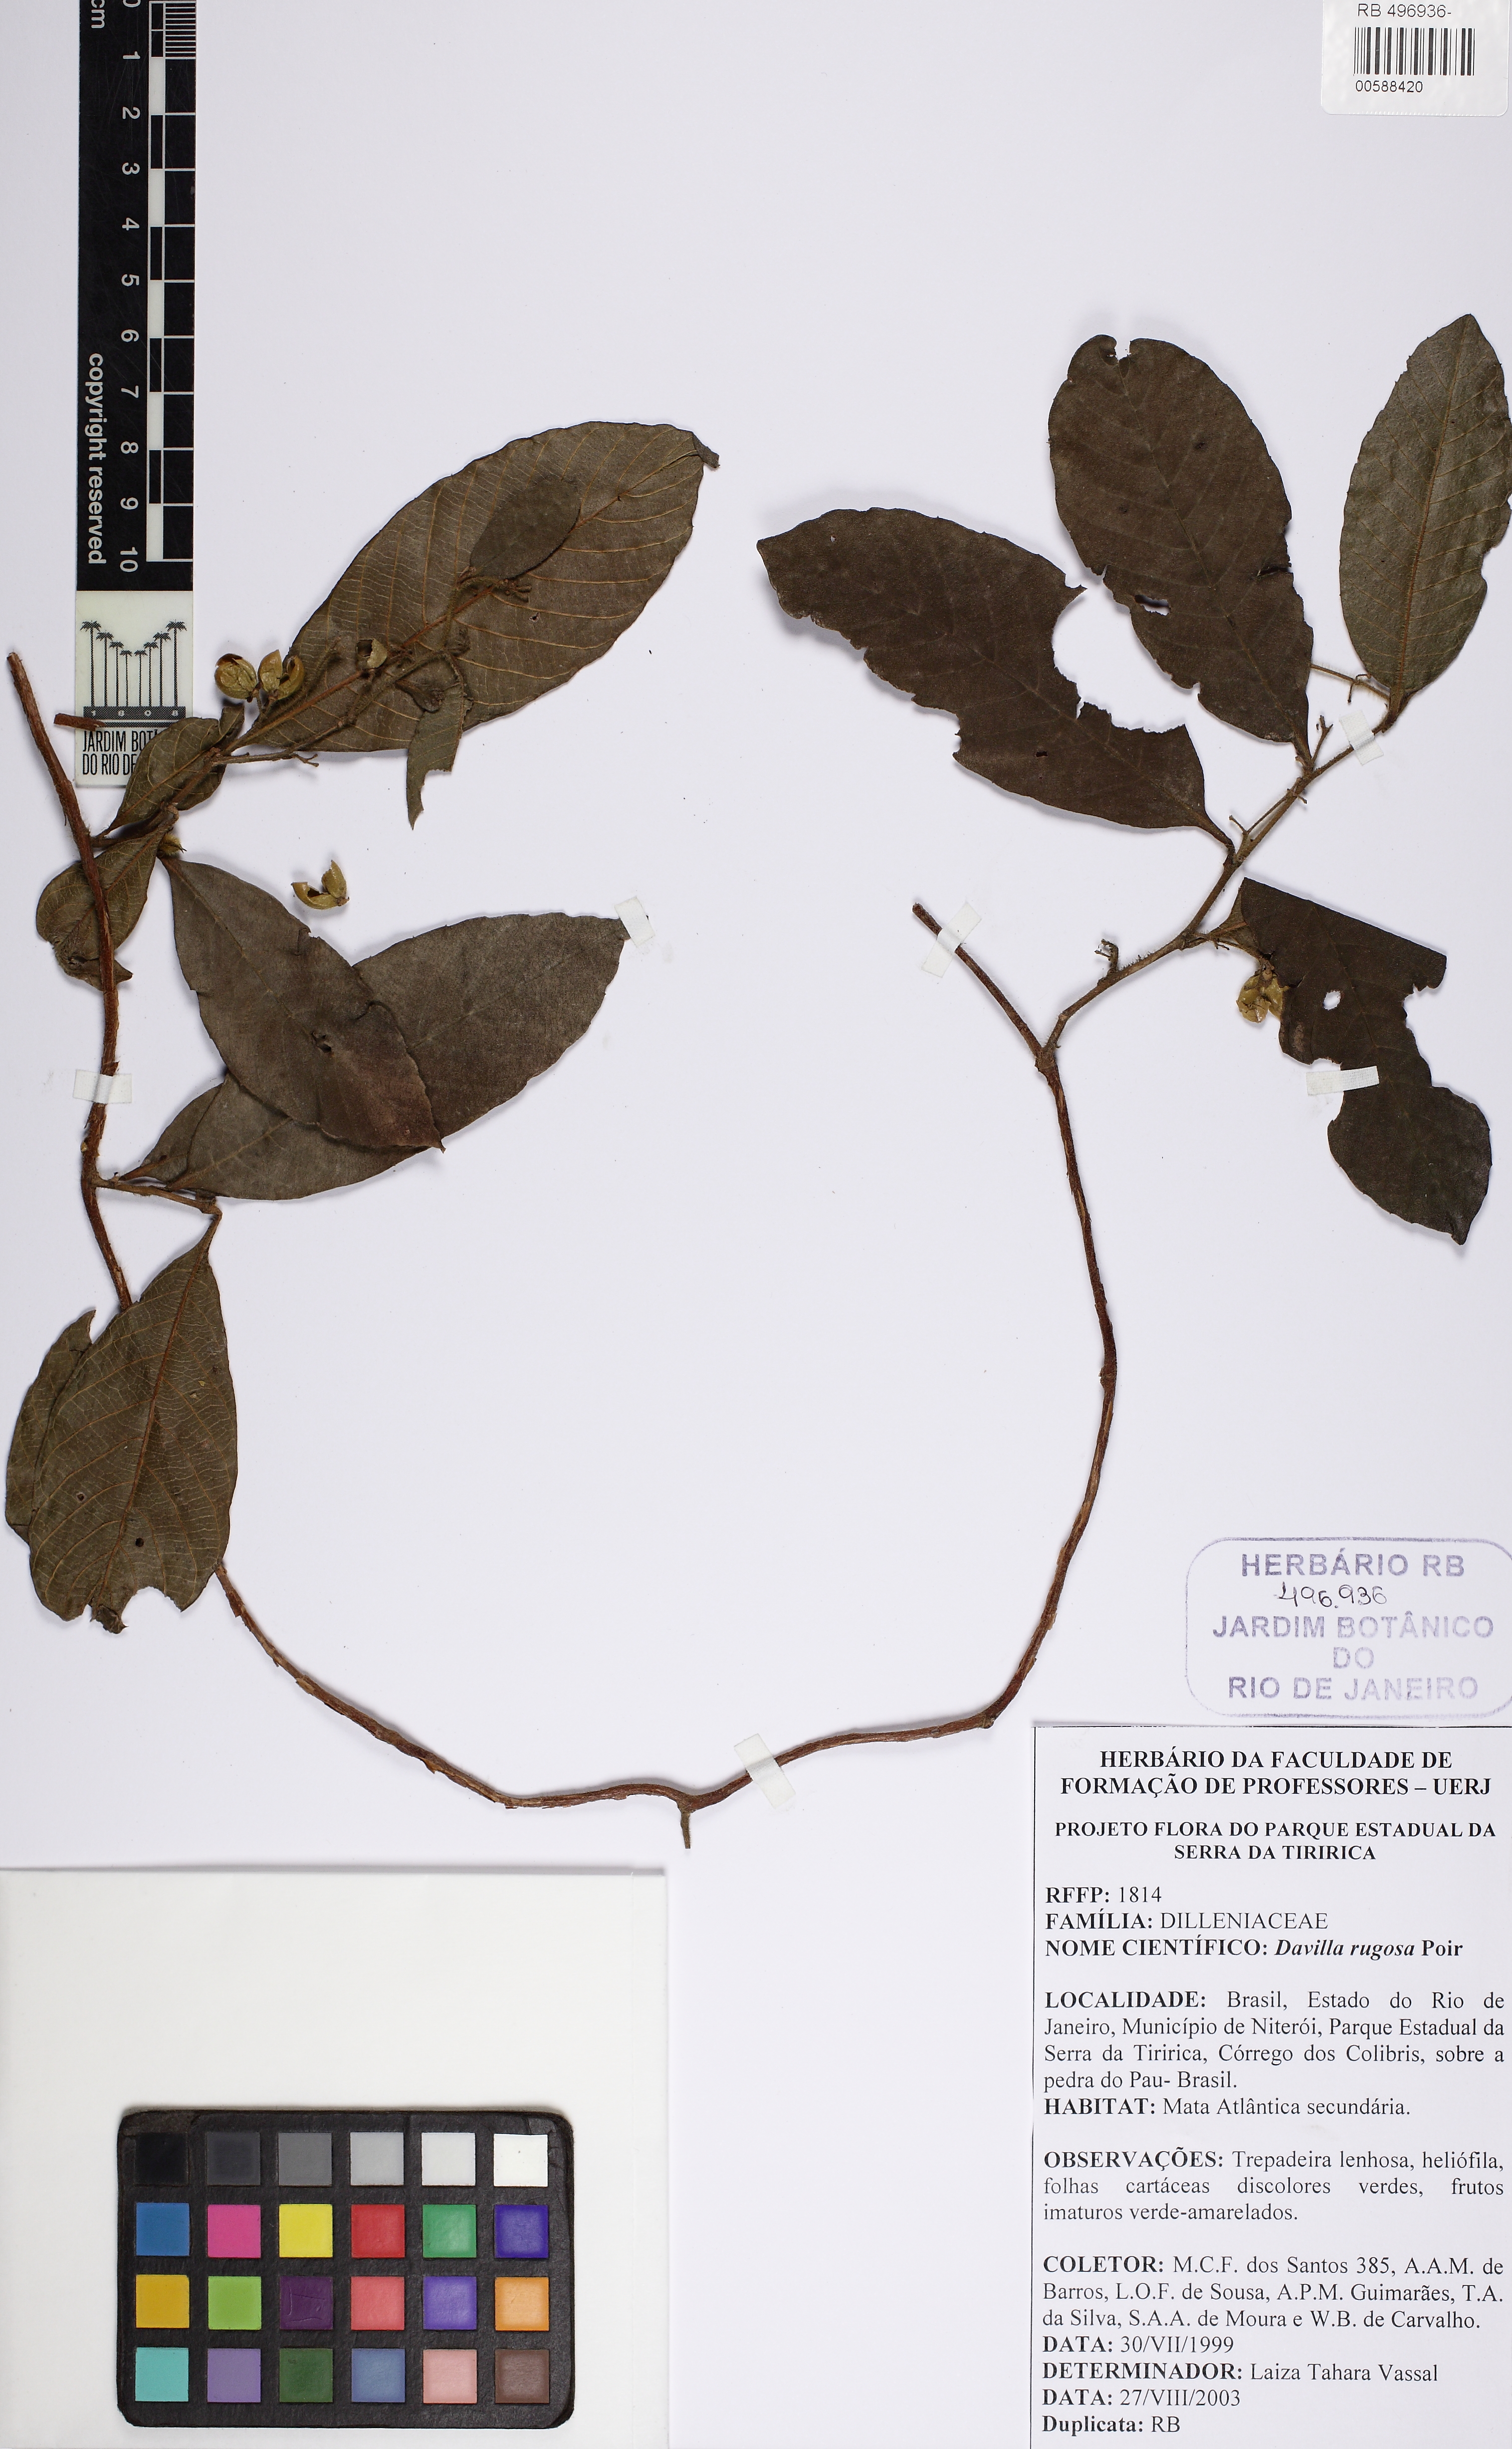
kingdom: Plantae
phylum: Tracheophyta
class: Magnoliopsida
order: Dilleniales
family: Dilleniaceae
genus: Davilla
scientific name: Davilla rugosa
